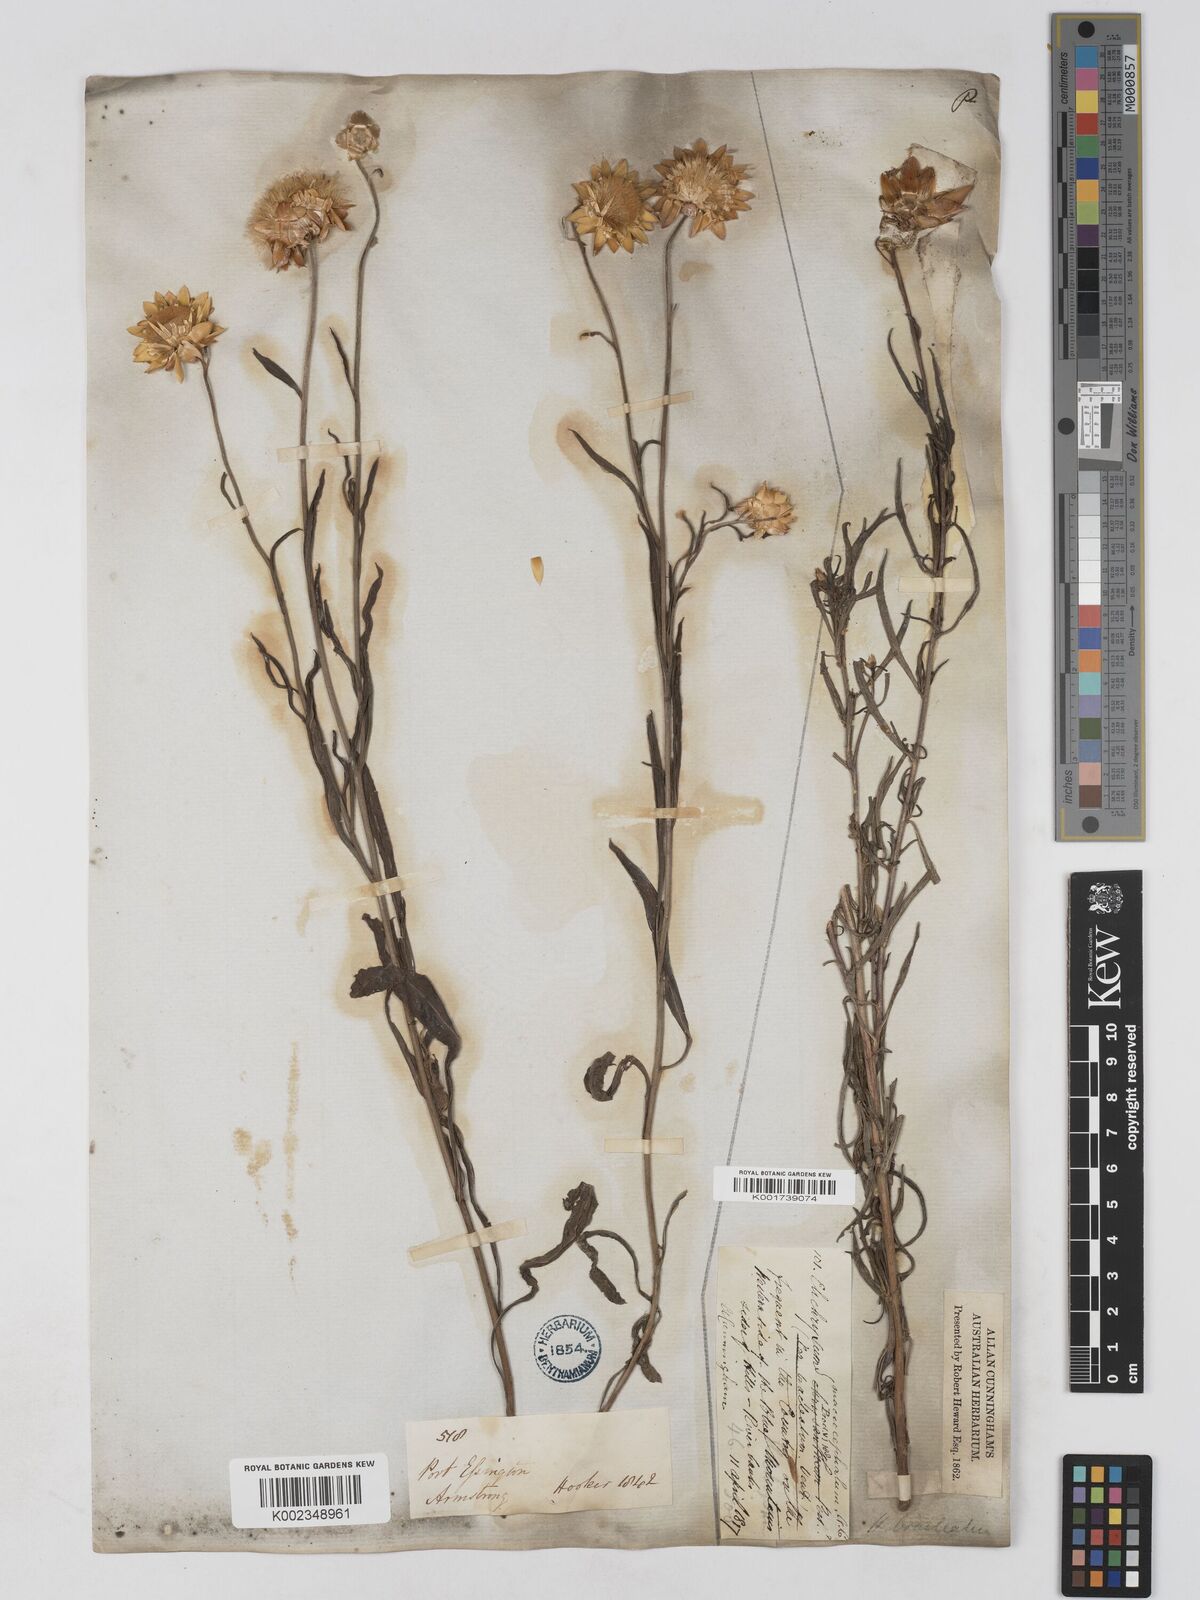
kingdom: Plantae
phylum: Tracheophyta
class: Magnoliopsida
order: Asterales
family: Asteraceae
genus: Xerochrysum
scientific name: Xerochrysum bracteatum
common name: Bracted strawflower
